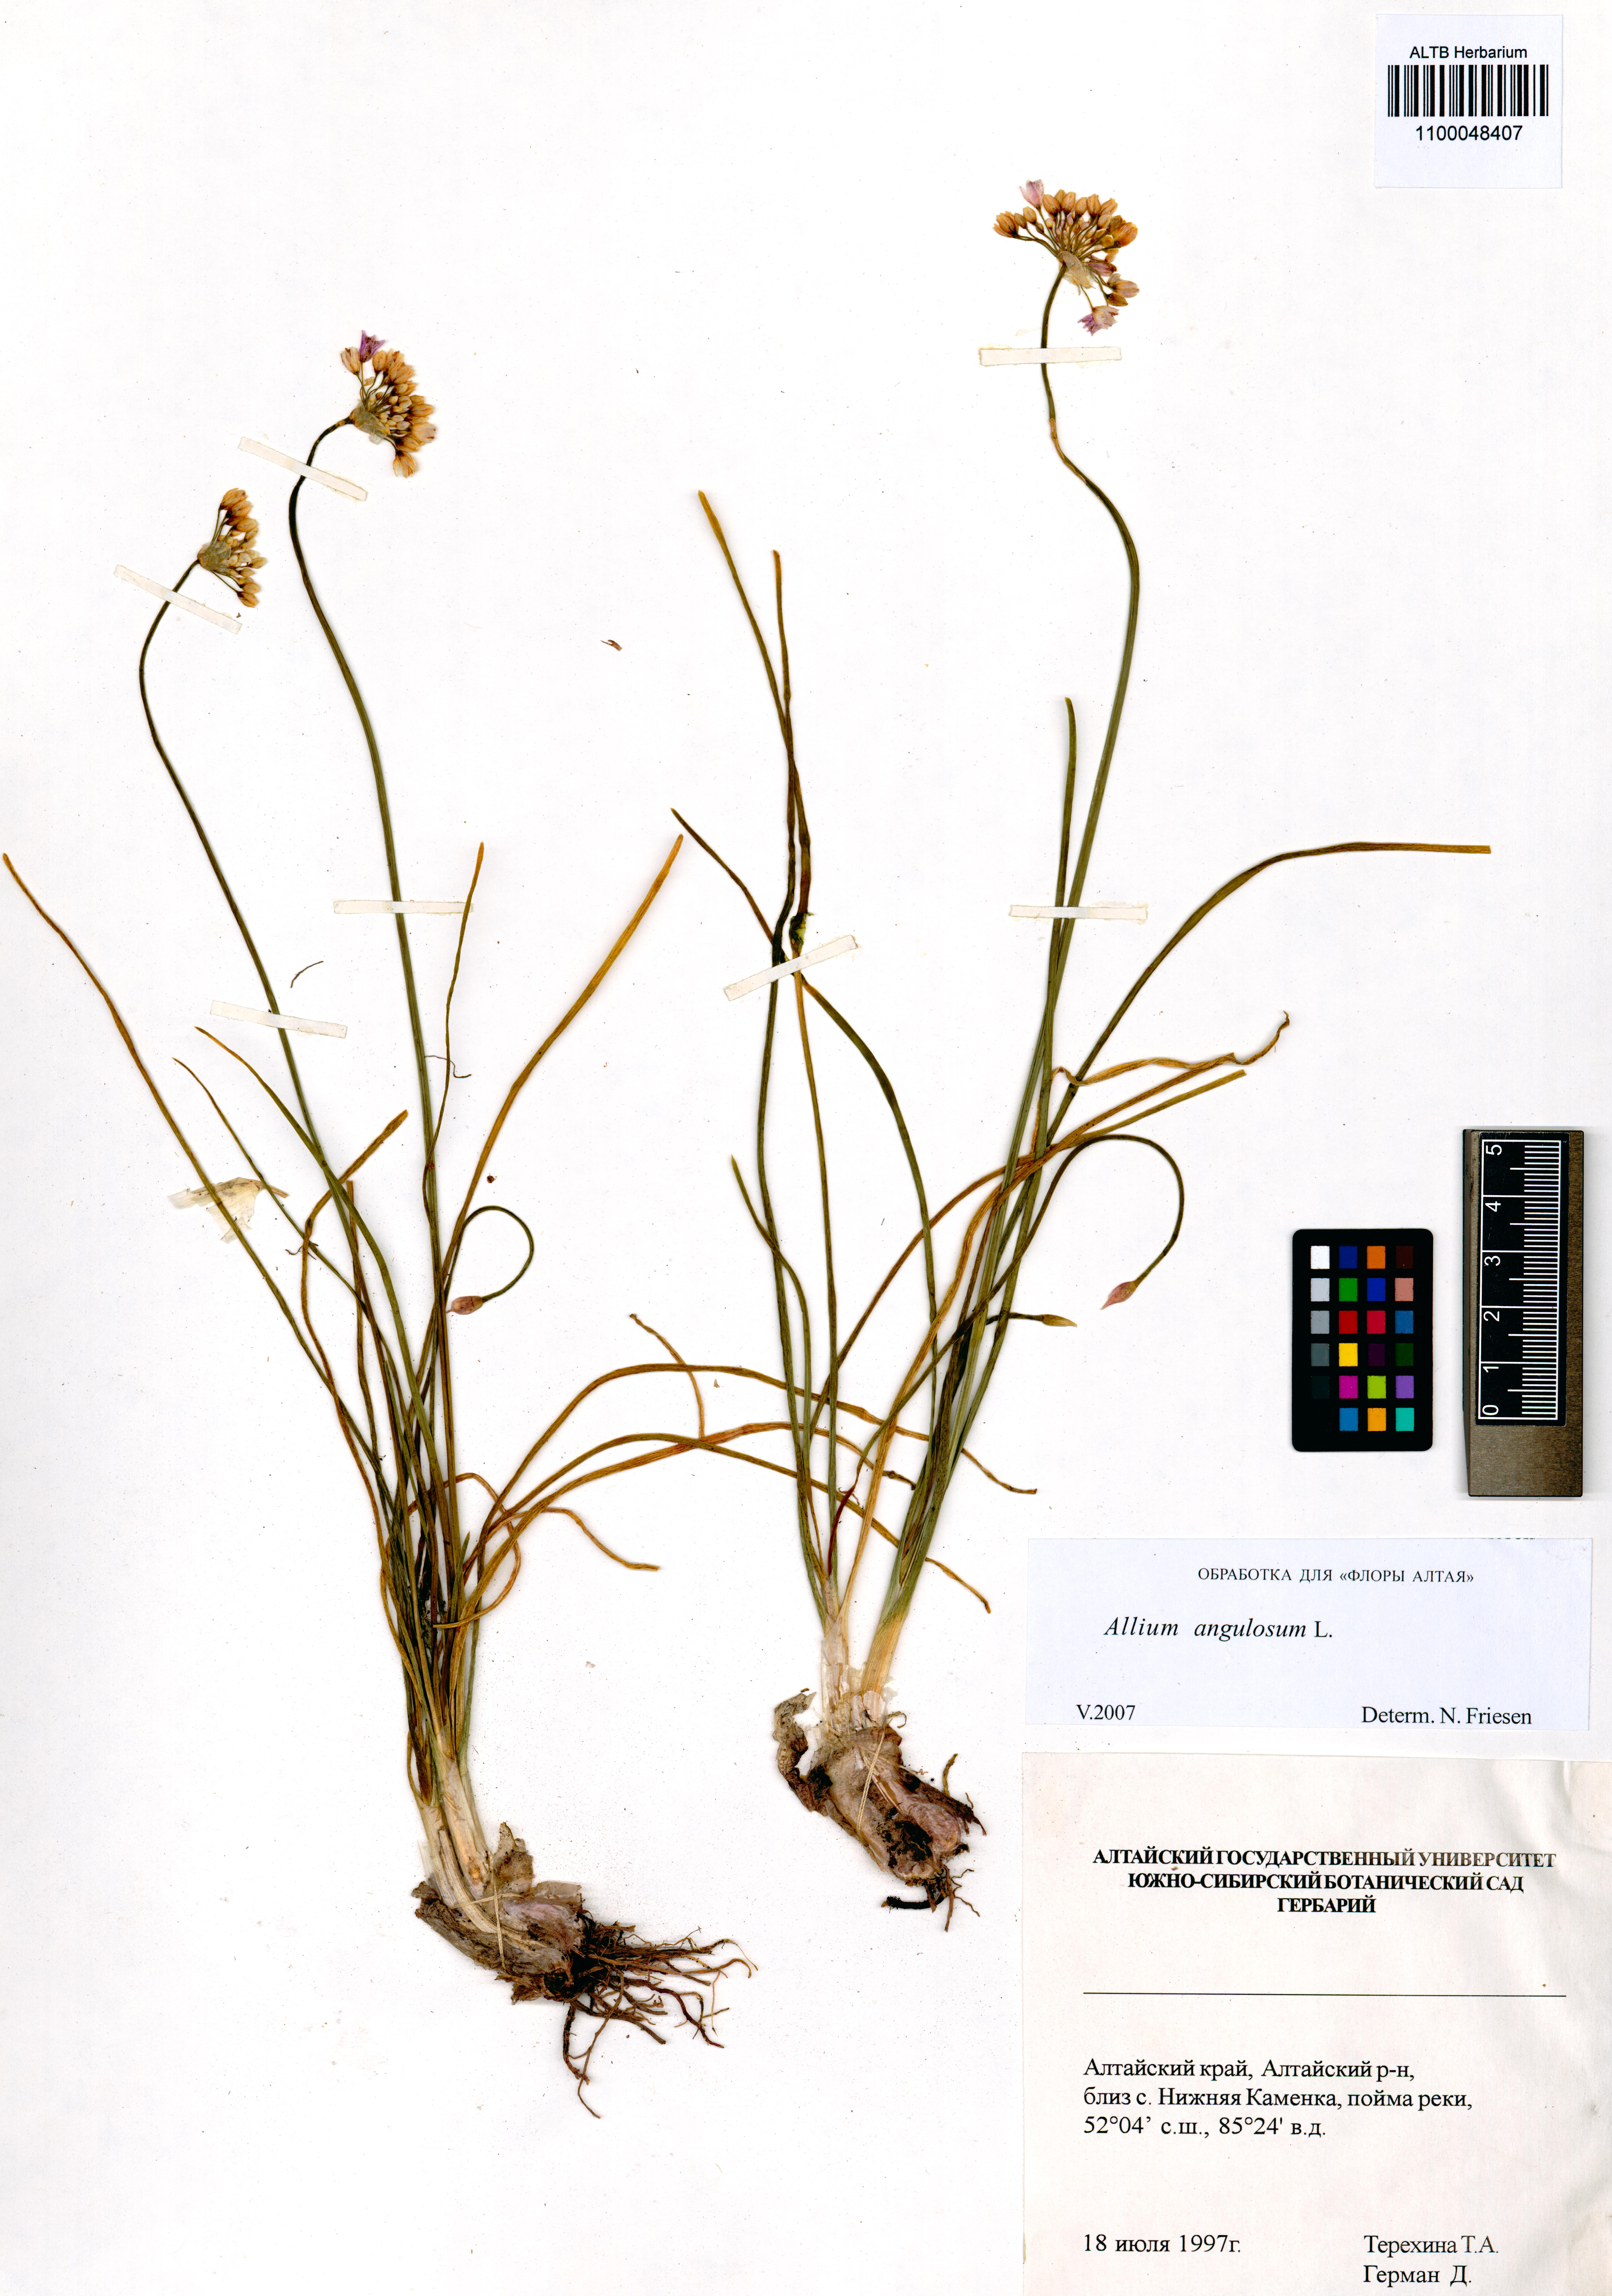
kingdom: Plantae
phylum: Tracheophyta
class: Liliopsida
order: Asparagales
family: Amaryllidaceae
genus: Allium
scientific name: Allium angulosum
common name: Mouse garlic
